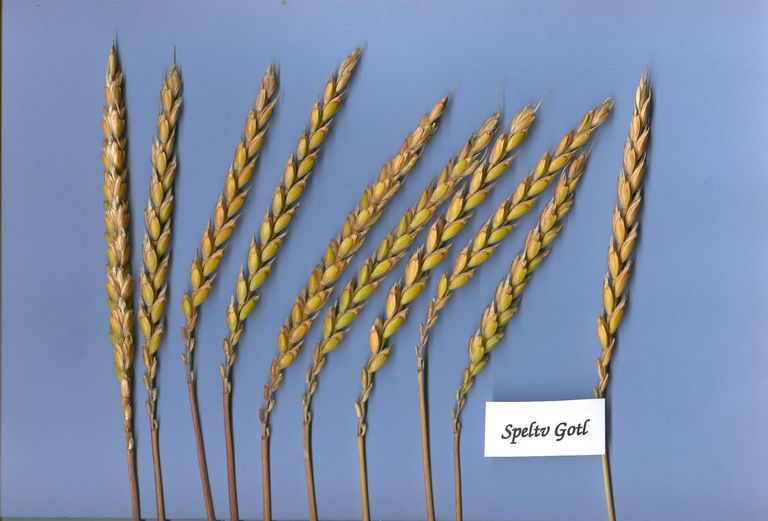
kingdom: Plantae
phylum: Tracheophyta
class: Liliopsida
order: Poales
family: Poaceae
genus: Triticum
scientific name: Triticum aestivum
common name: Common wheat
